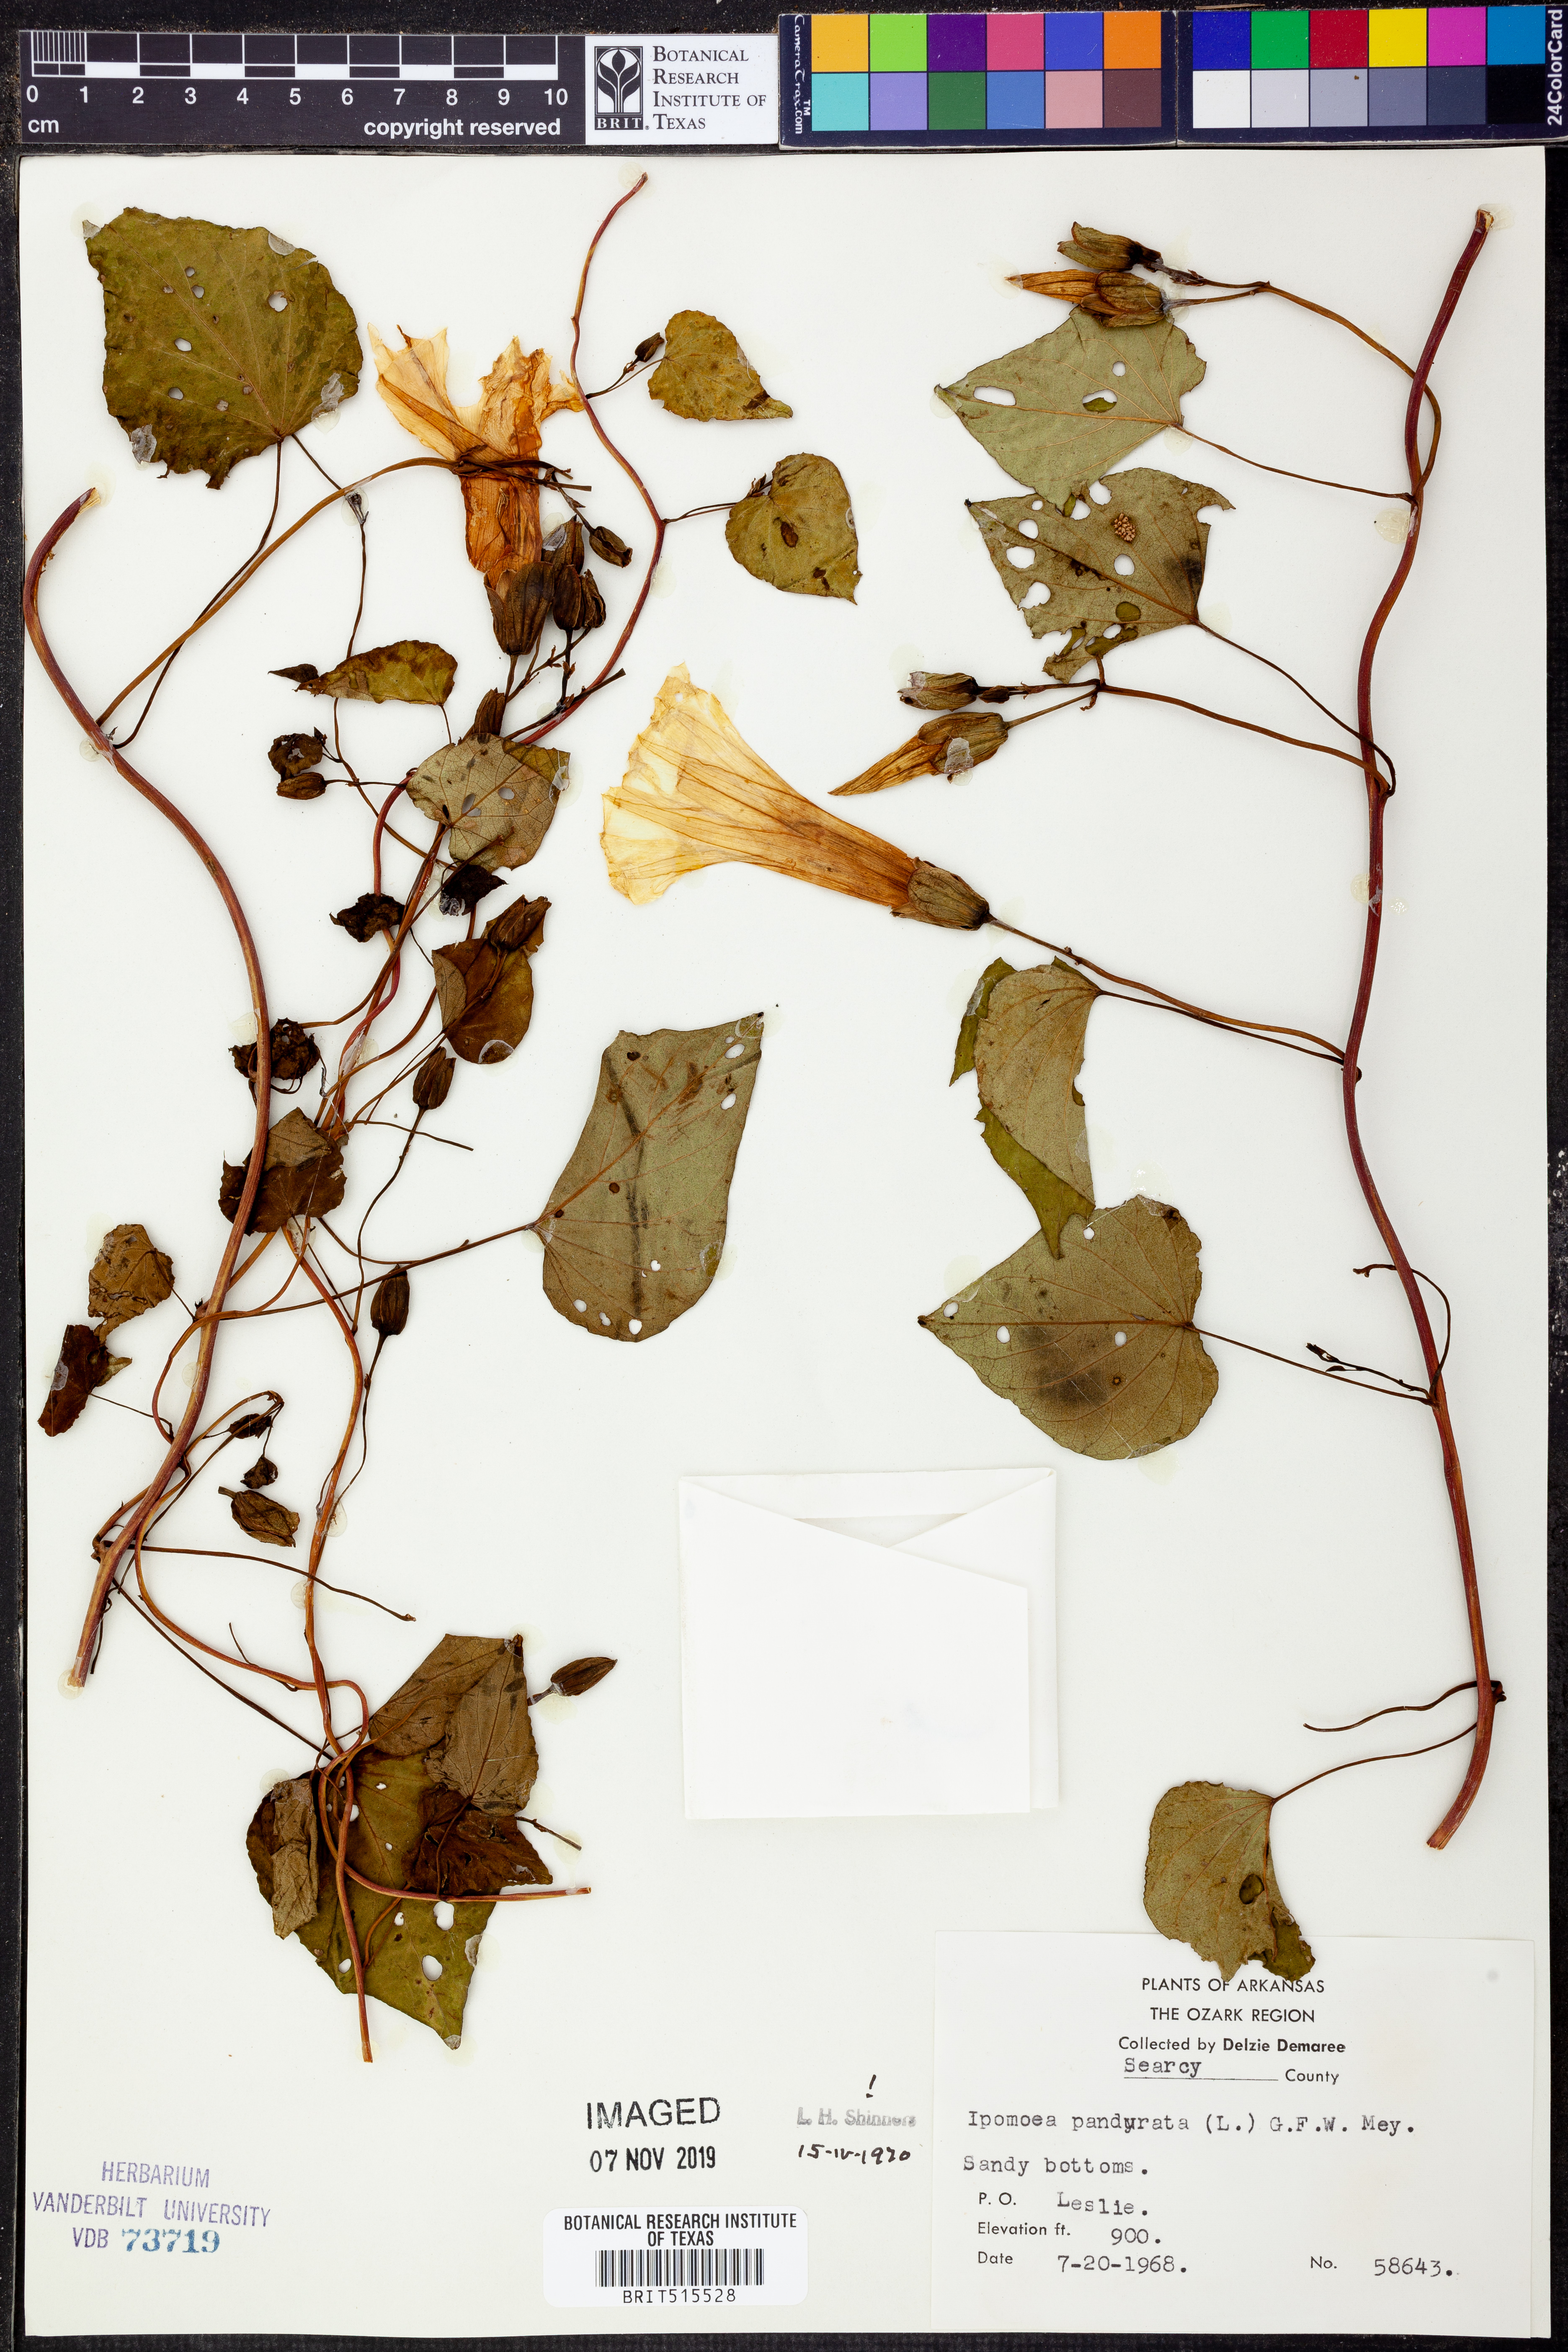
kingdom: Plantae
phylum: Tracheophyta
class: Magnoliopsida
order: Solanales
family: Convolvulaceae
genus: Ipomoea
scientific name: Ipomoea pandurata
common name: Man-of-the-earth
